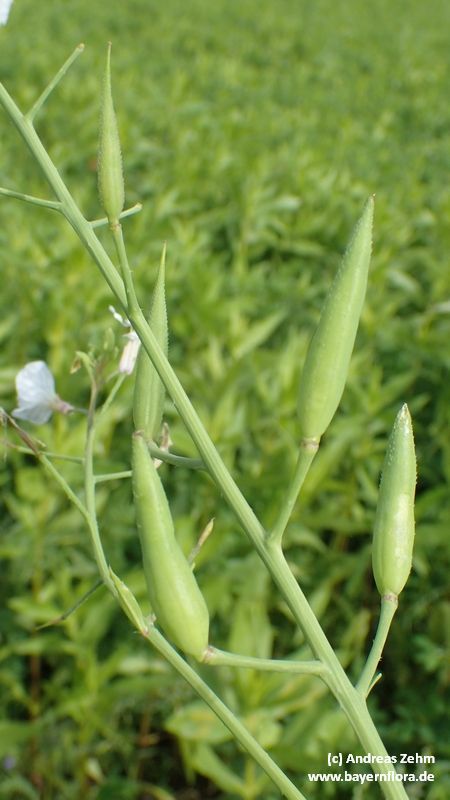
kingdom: Plantae
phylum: Tracheophyta
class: Magnoliopsida
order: Brassicales
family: Brassicaceae
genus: Raphanus
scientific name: Raphanus sativus
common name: Cultivated radish
